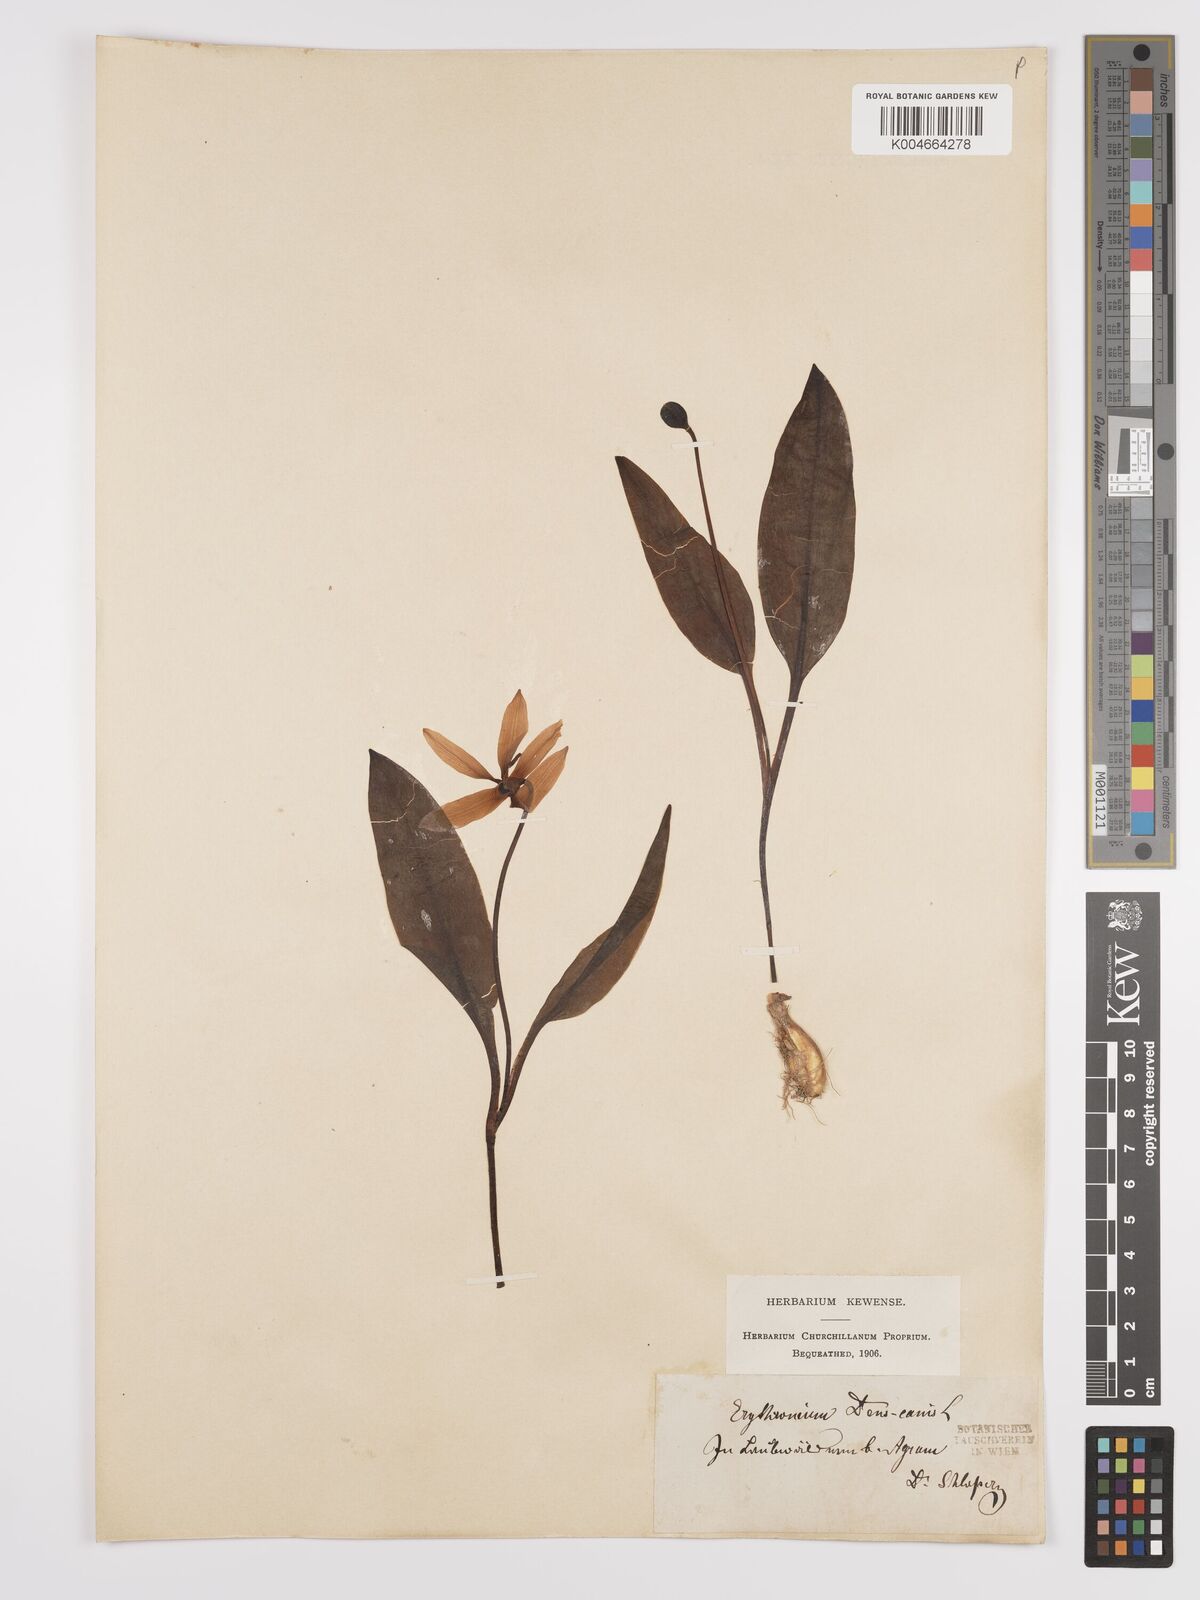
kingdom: Plantae
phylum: Tracheophyta
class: Liliopsida
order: Liliales
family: Liliaceae
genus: Erythronium
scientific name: Erythronium dens-canis
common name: Dog's-tooth-violet
